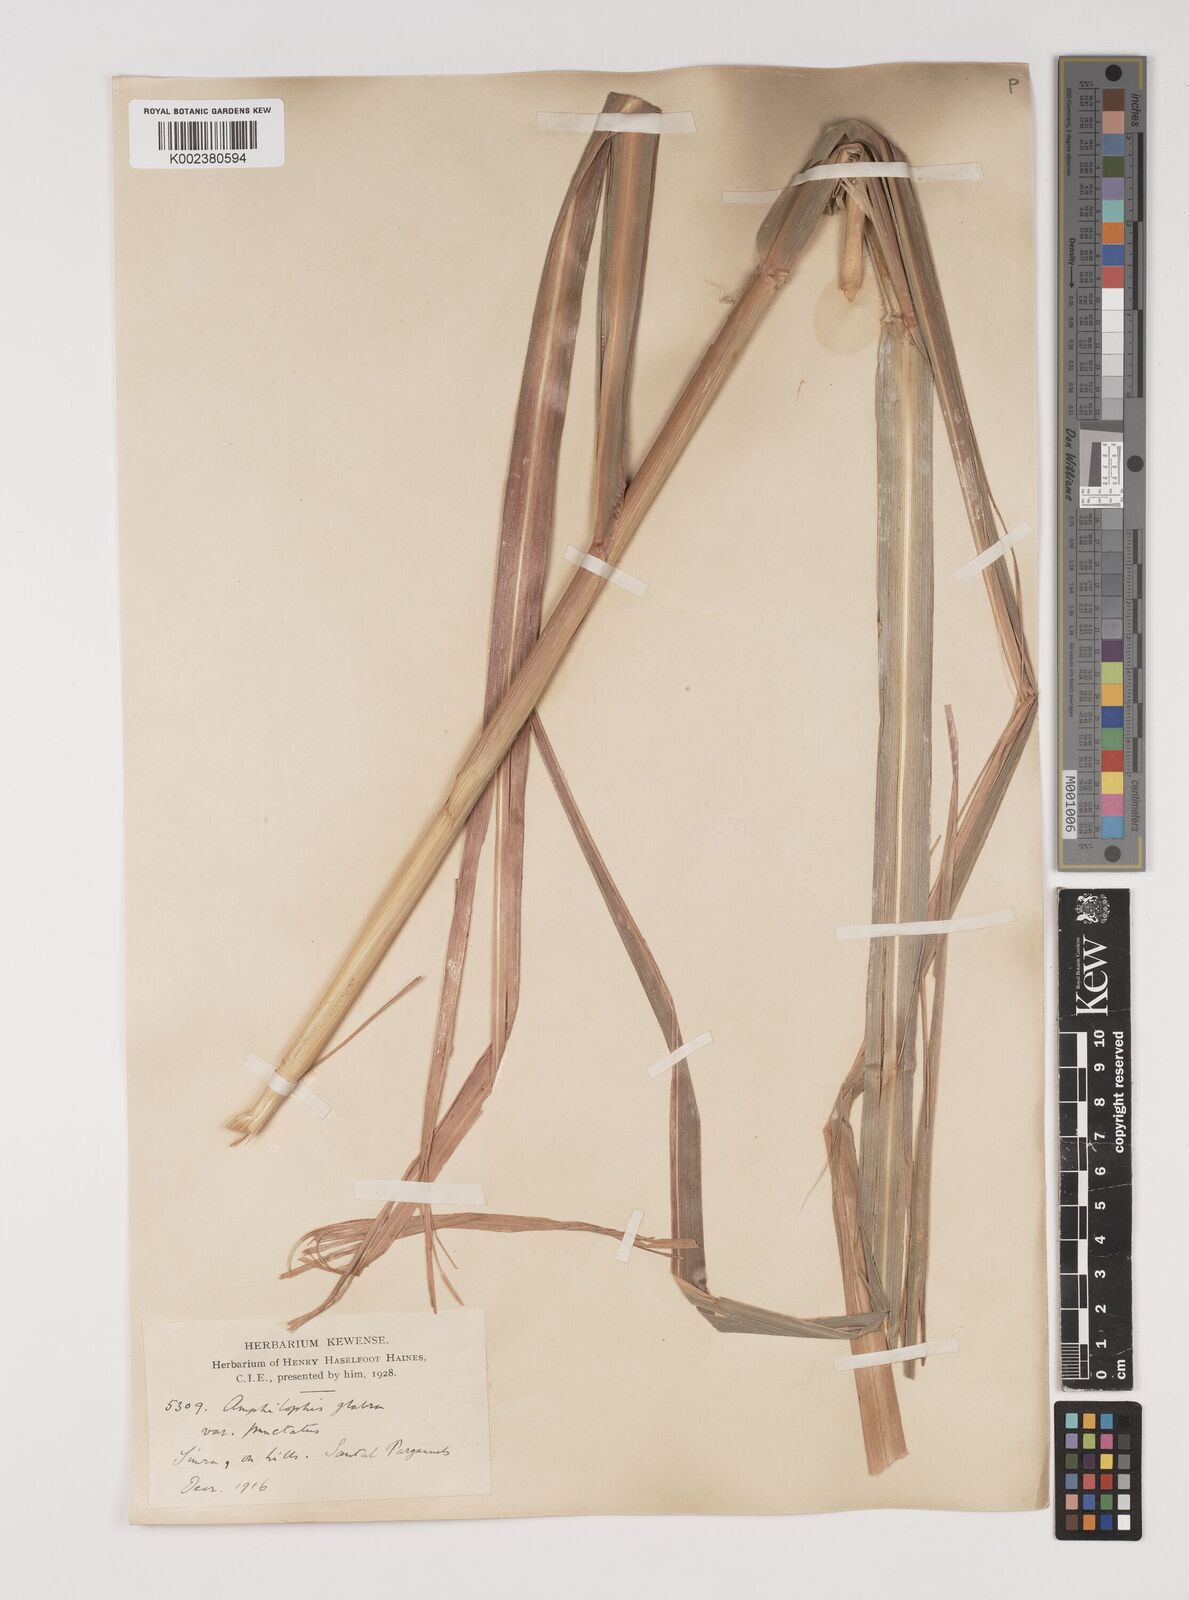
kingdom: Plantae
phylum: Tracheophyta
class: Liliopsida
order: Poales
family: Poaceae
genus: Bothriochloa
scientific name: Bothriochloa bladhii
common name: Caucasian bluestem
